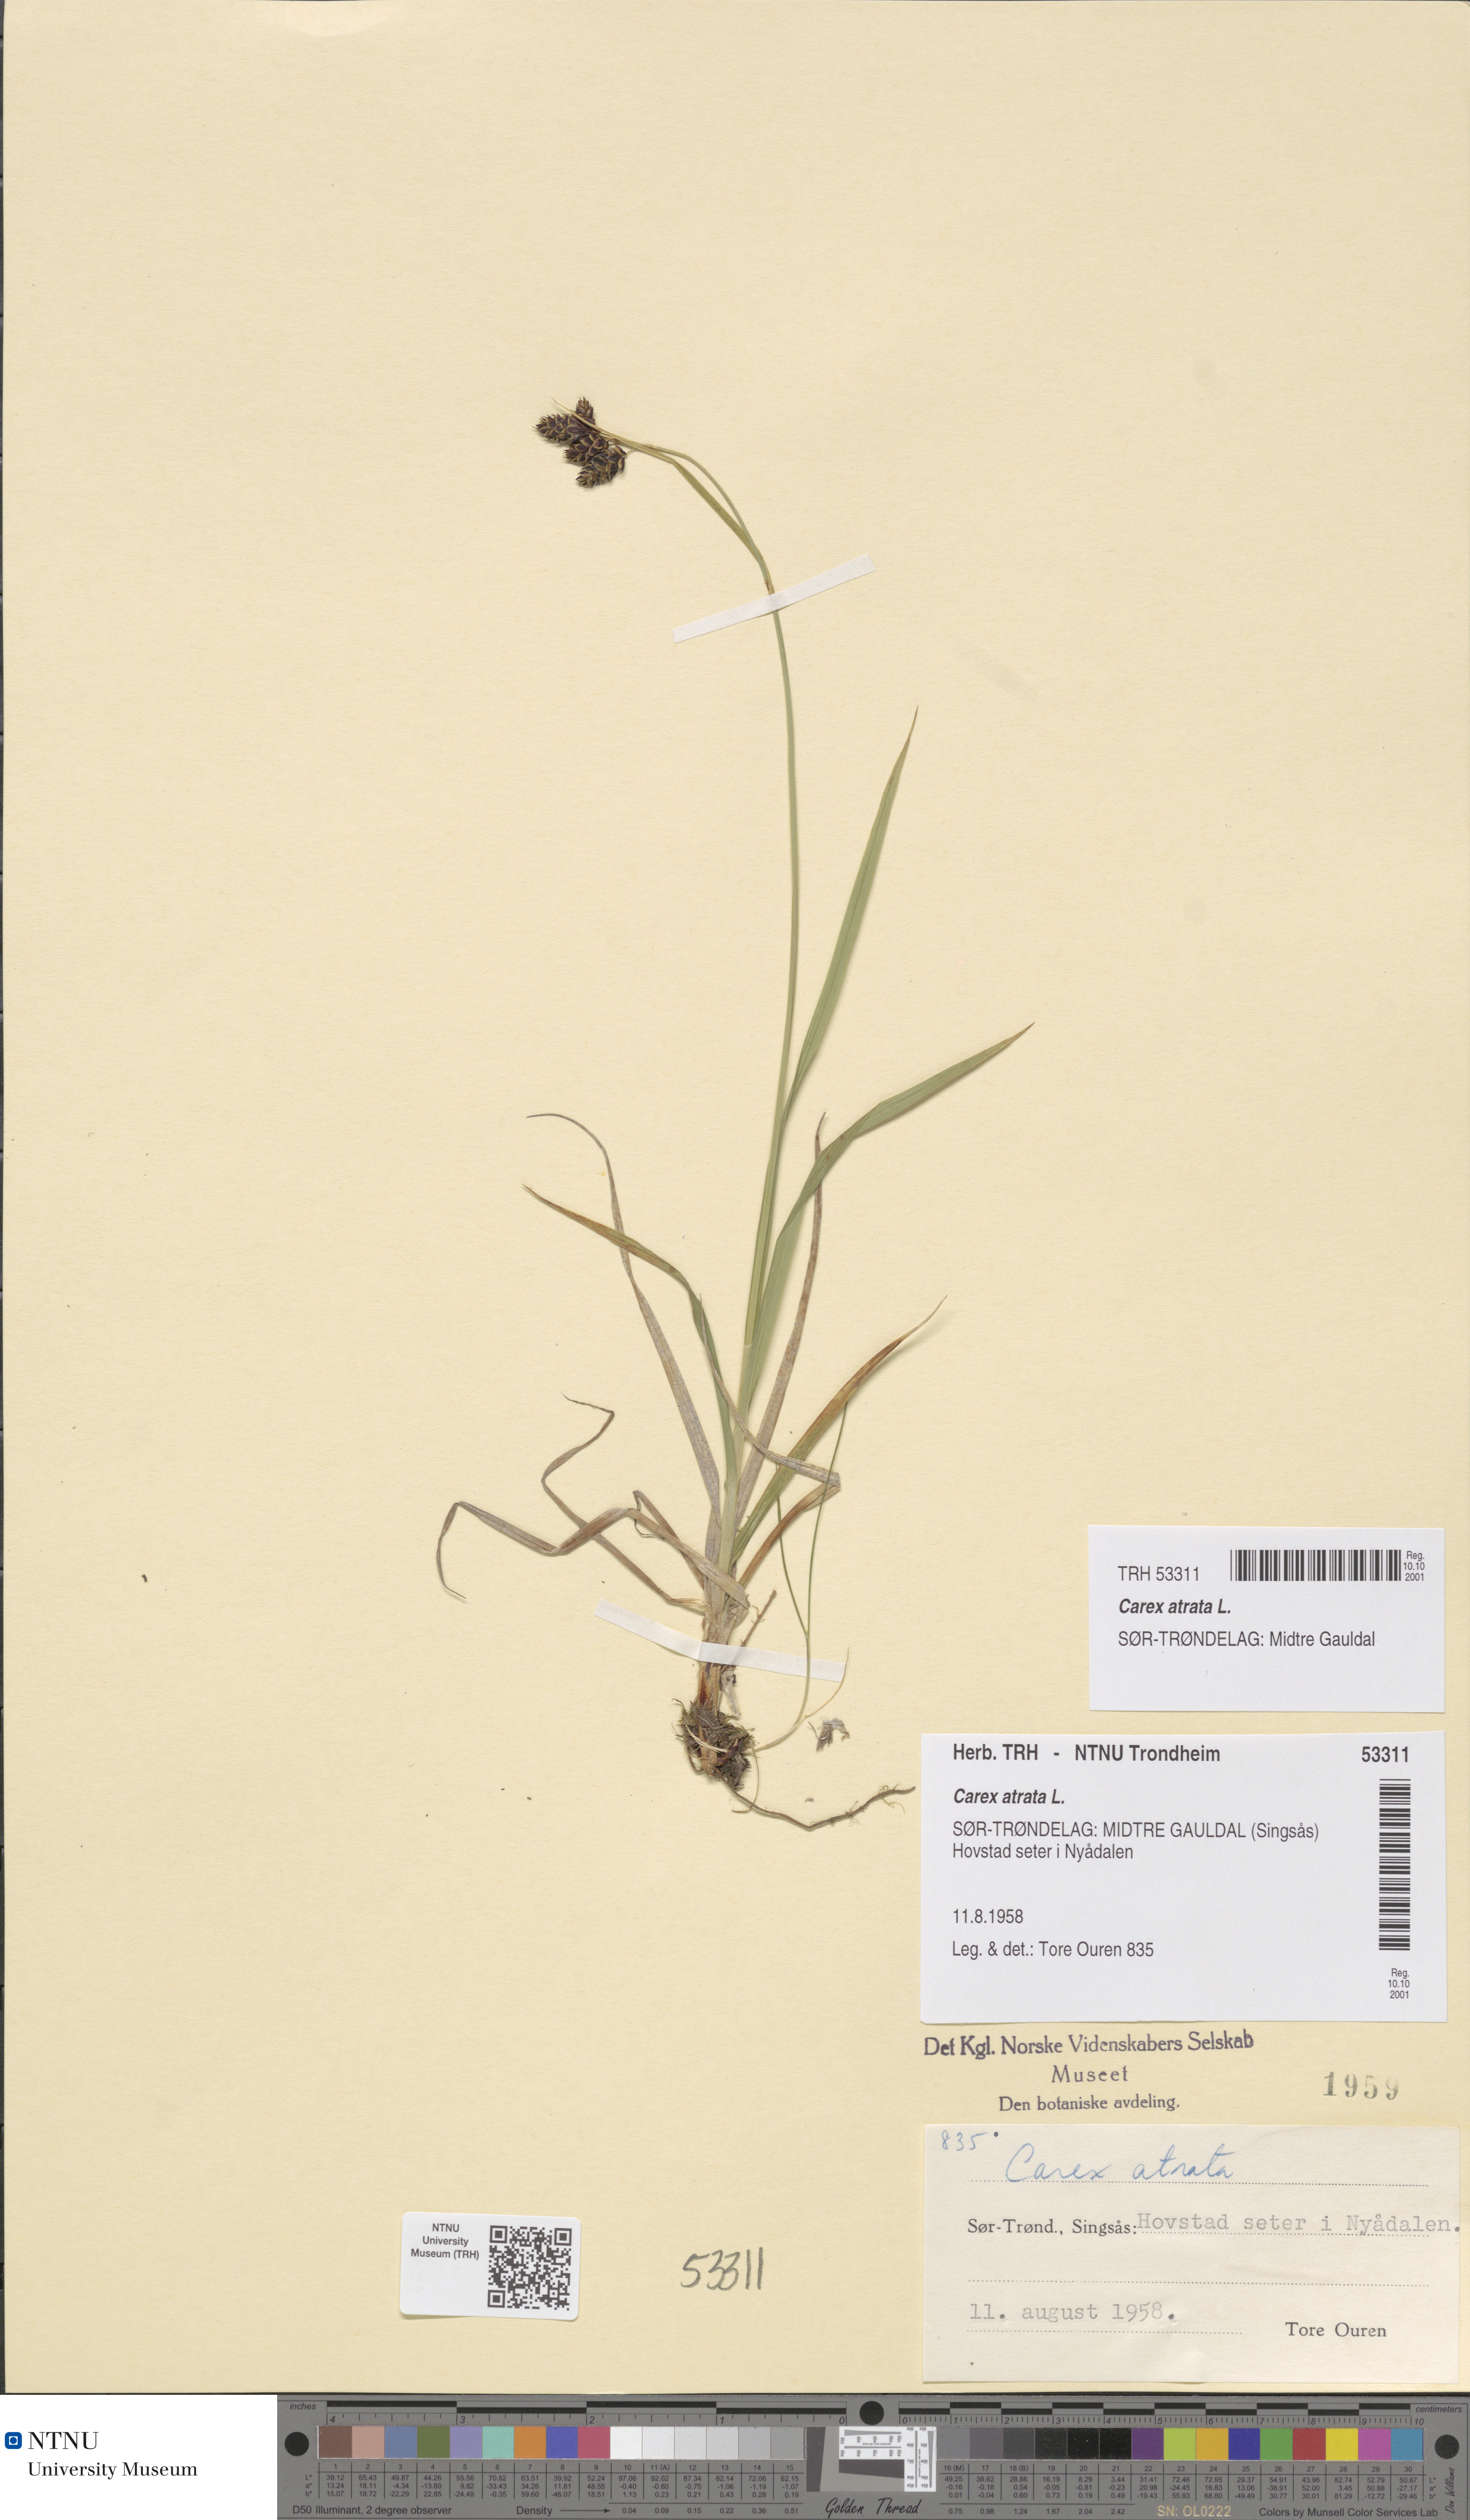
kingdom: Plantae
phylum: Tracheophyta
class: Liliopsida
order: Poales
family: Cyperaceae
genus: Carex
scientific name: Carex atrata
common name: Black alpine sedge
